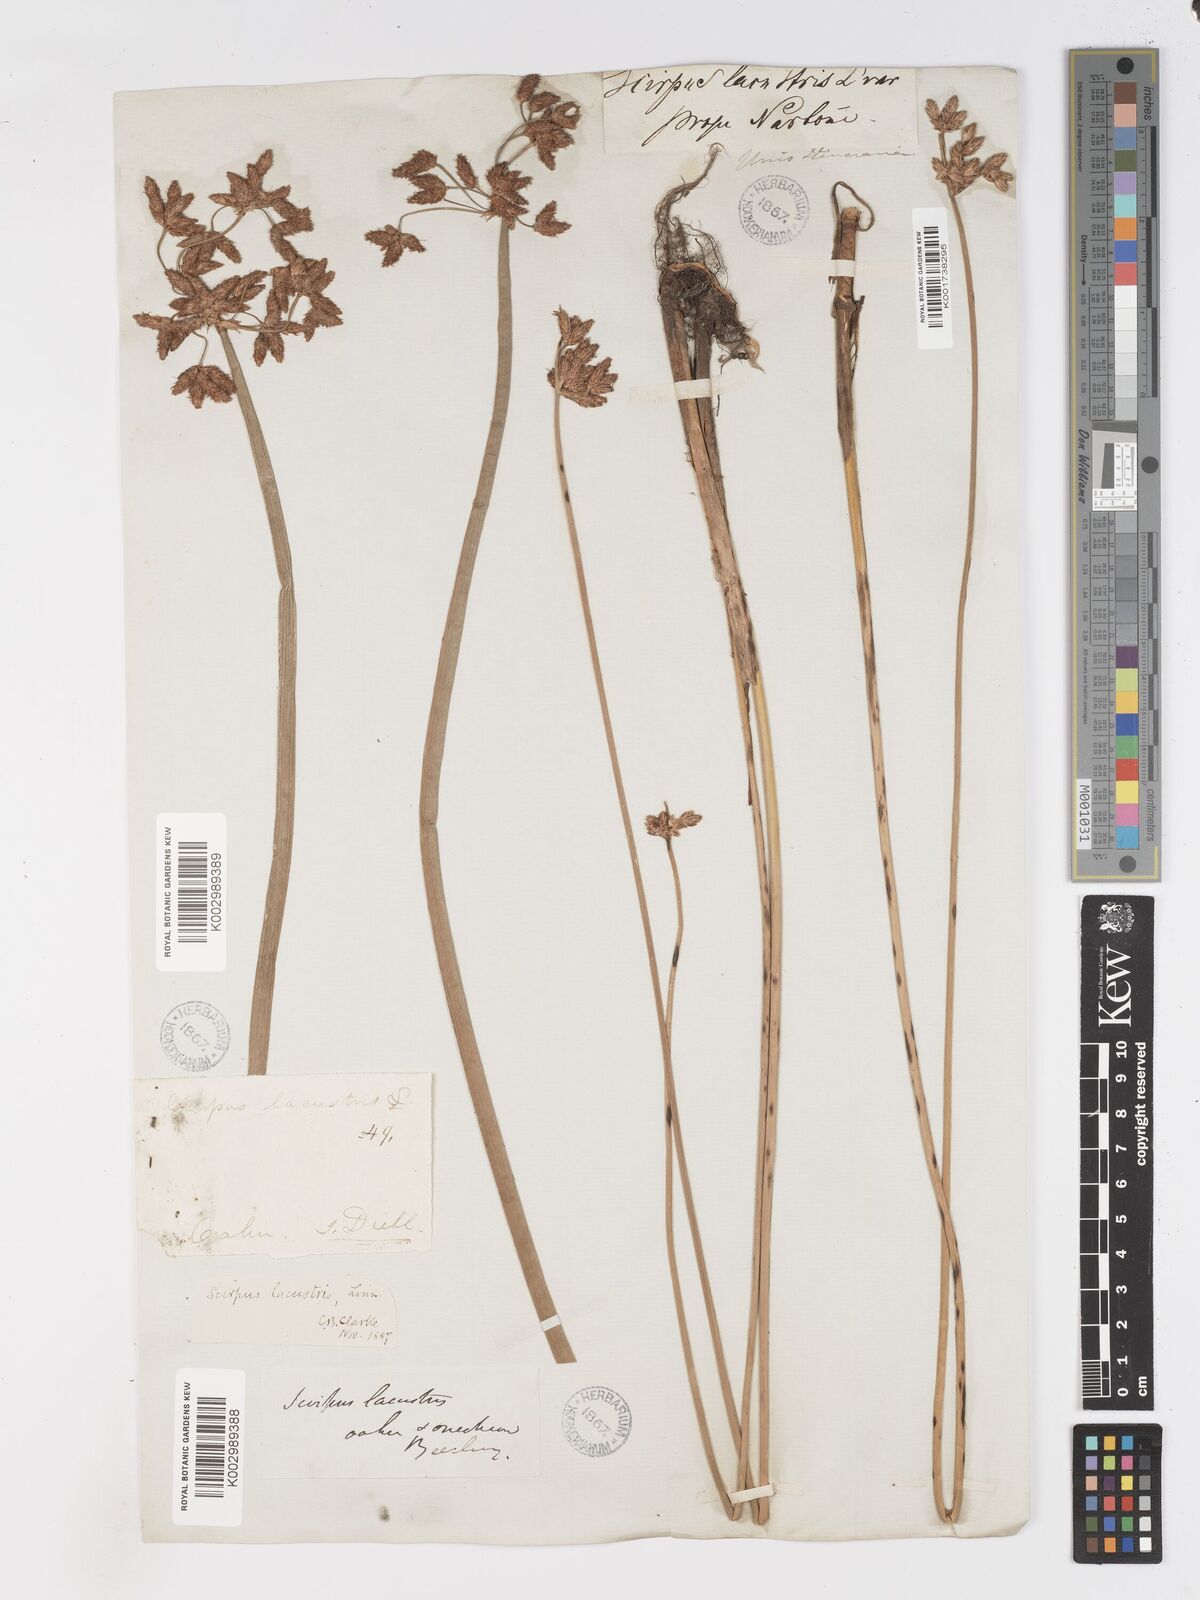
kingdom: Plantae
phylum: Tracheophyta
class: Liliopsida
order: Poales
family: Cyperaceae
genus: Schoenoplectus
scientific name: Schoenoplectus californicus
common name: California bulrush
